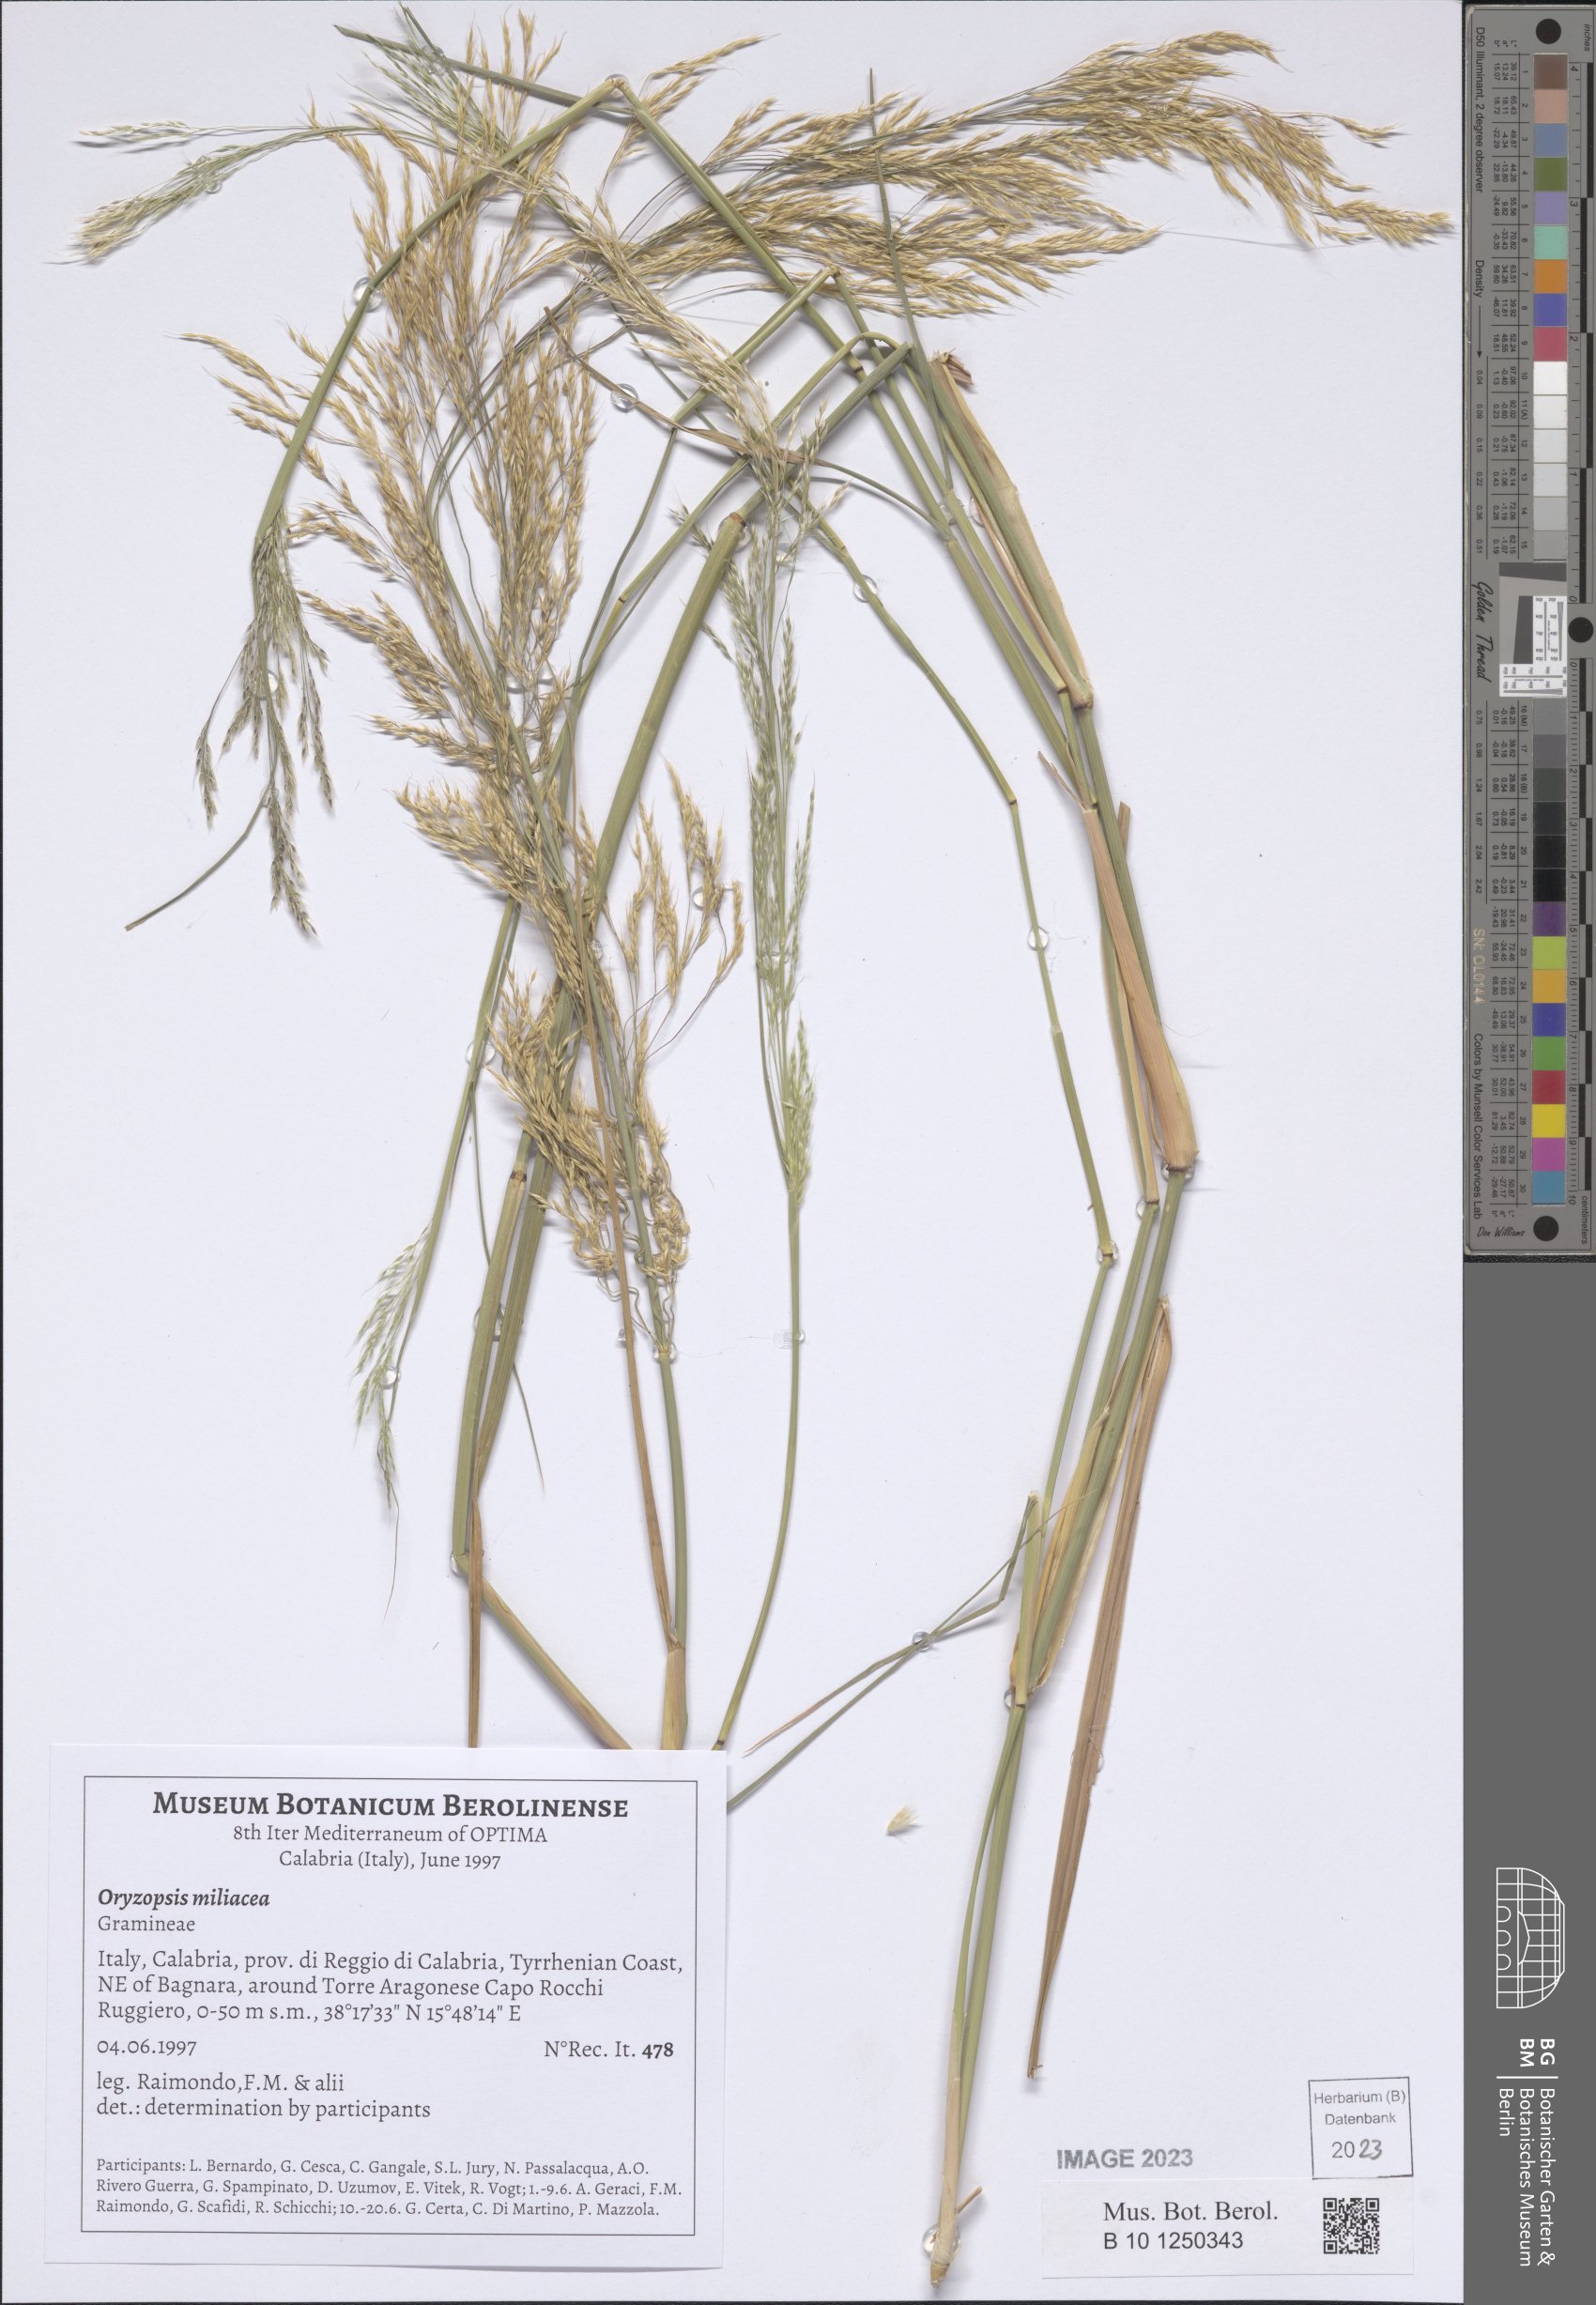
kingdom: Plantae
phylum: Tracheophyta
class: Liliopsida
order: Poales
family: Poaceae
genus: Oloptum
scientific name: Oloptum miliaceum
